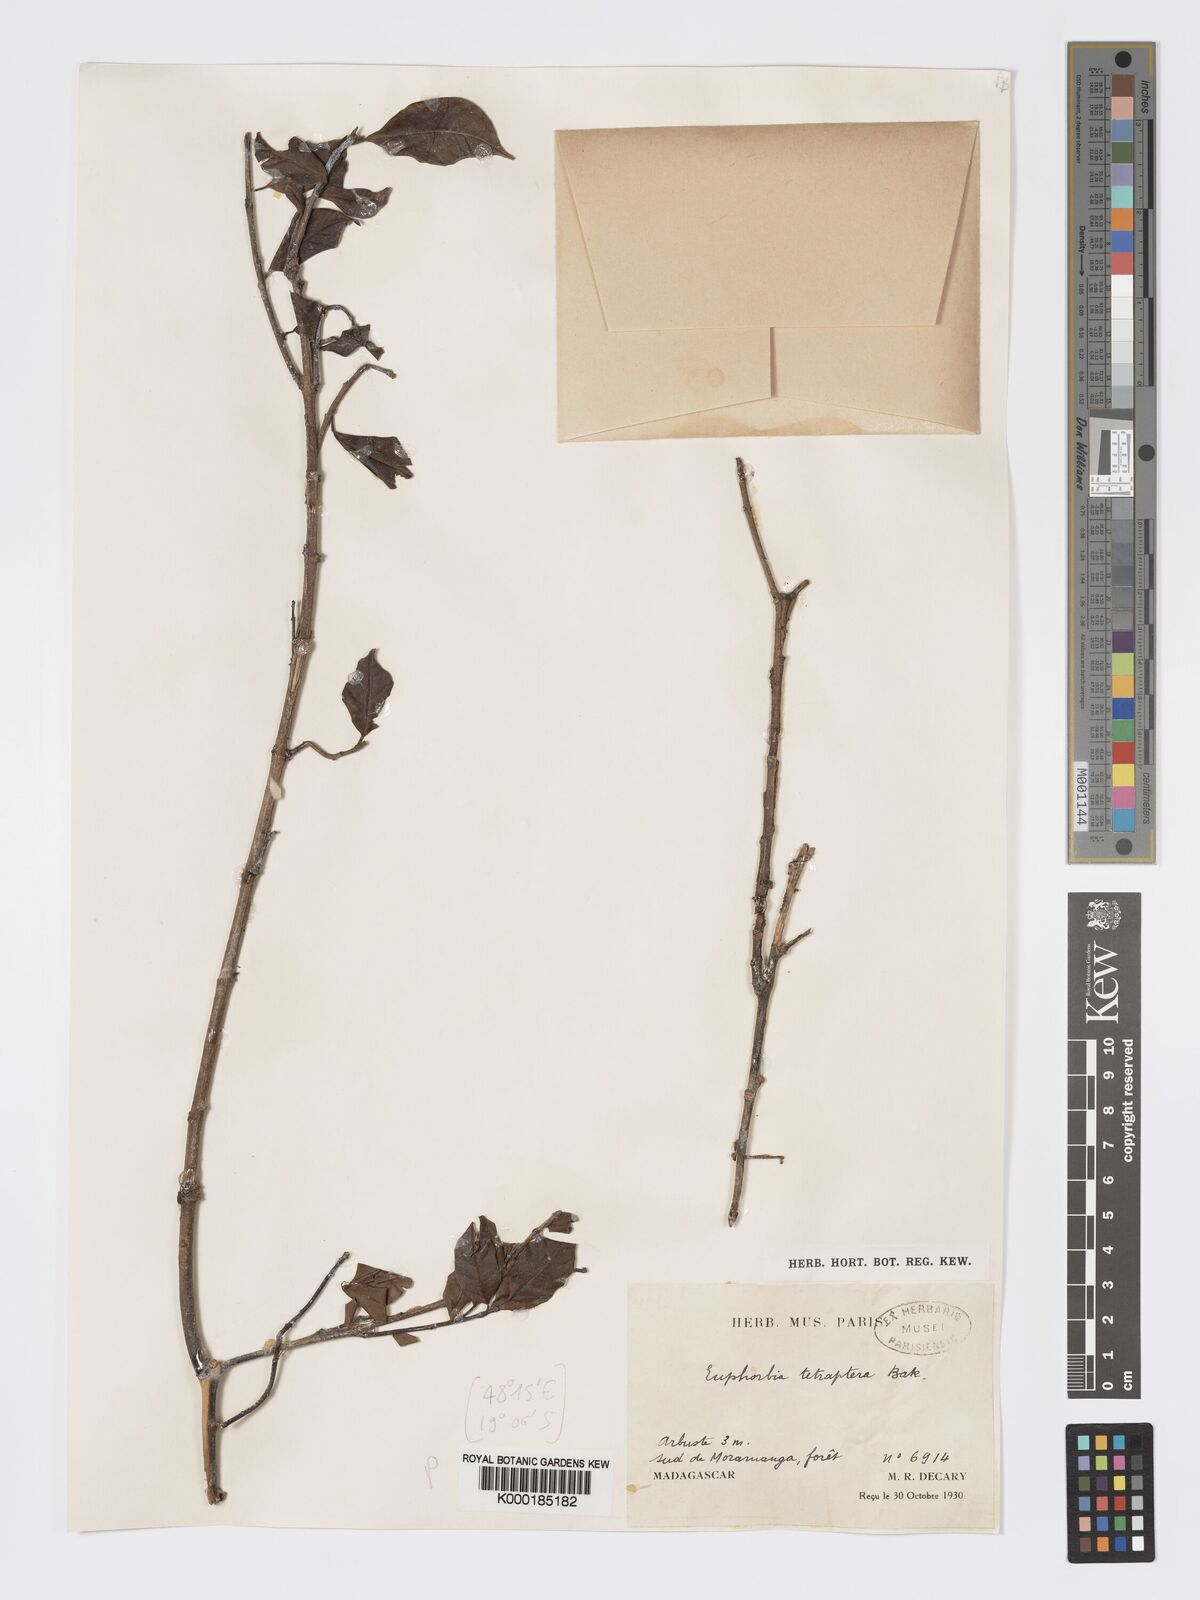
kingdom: Plantae
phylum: Tracheophyta
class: Magnoliopsida
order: Malpighiales
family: Euphorbiaceae
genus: Euphorbia
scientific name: Euphorbia tetraptera
